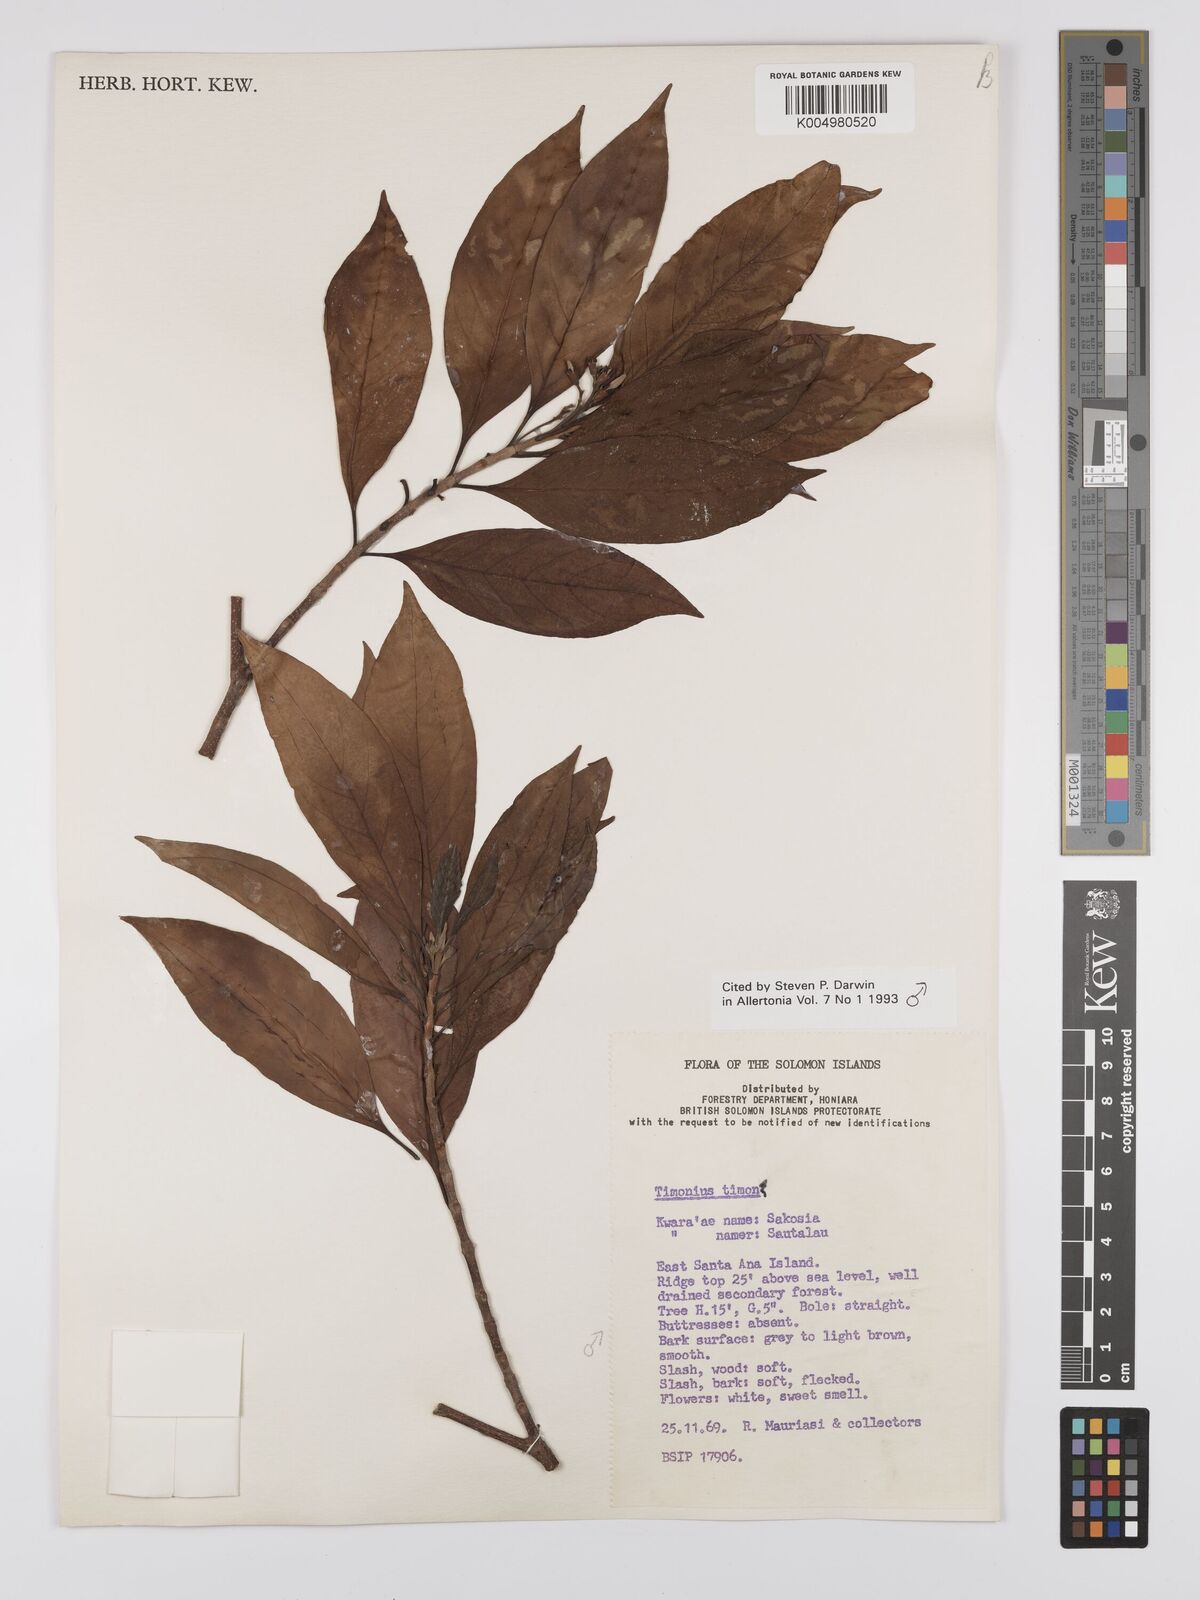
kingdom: Plantae
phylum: Tracheophyta
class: Magnoliopsida
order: Gentianales
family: Rubiaceae
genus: Timonius
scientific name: Timonius timon
